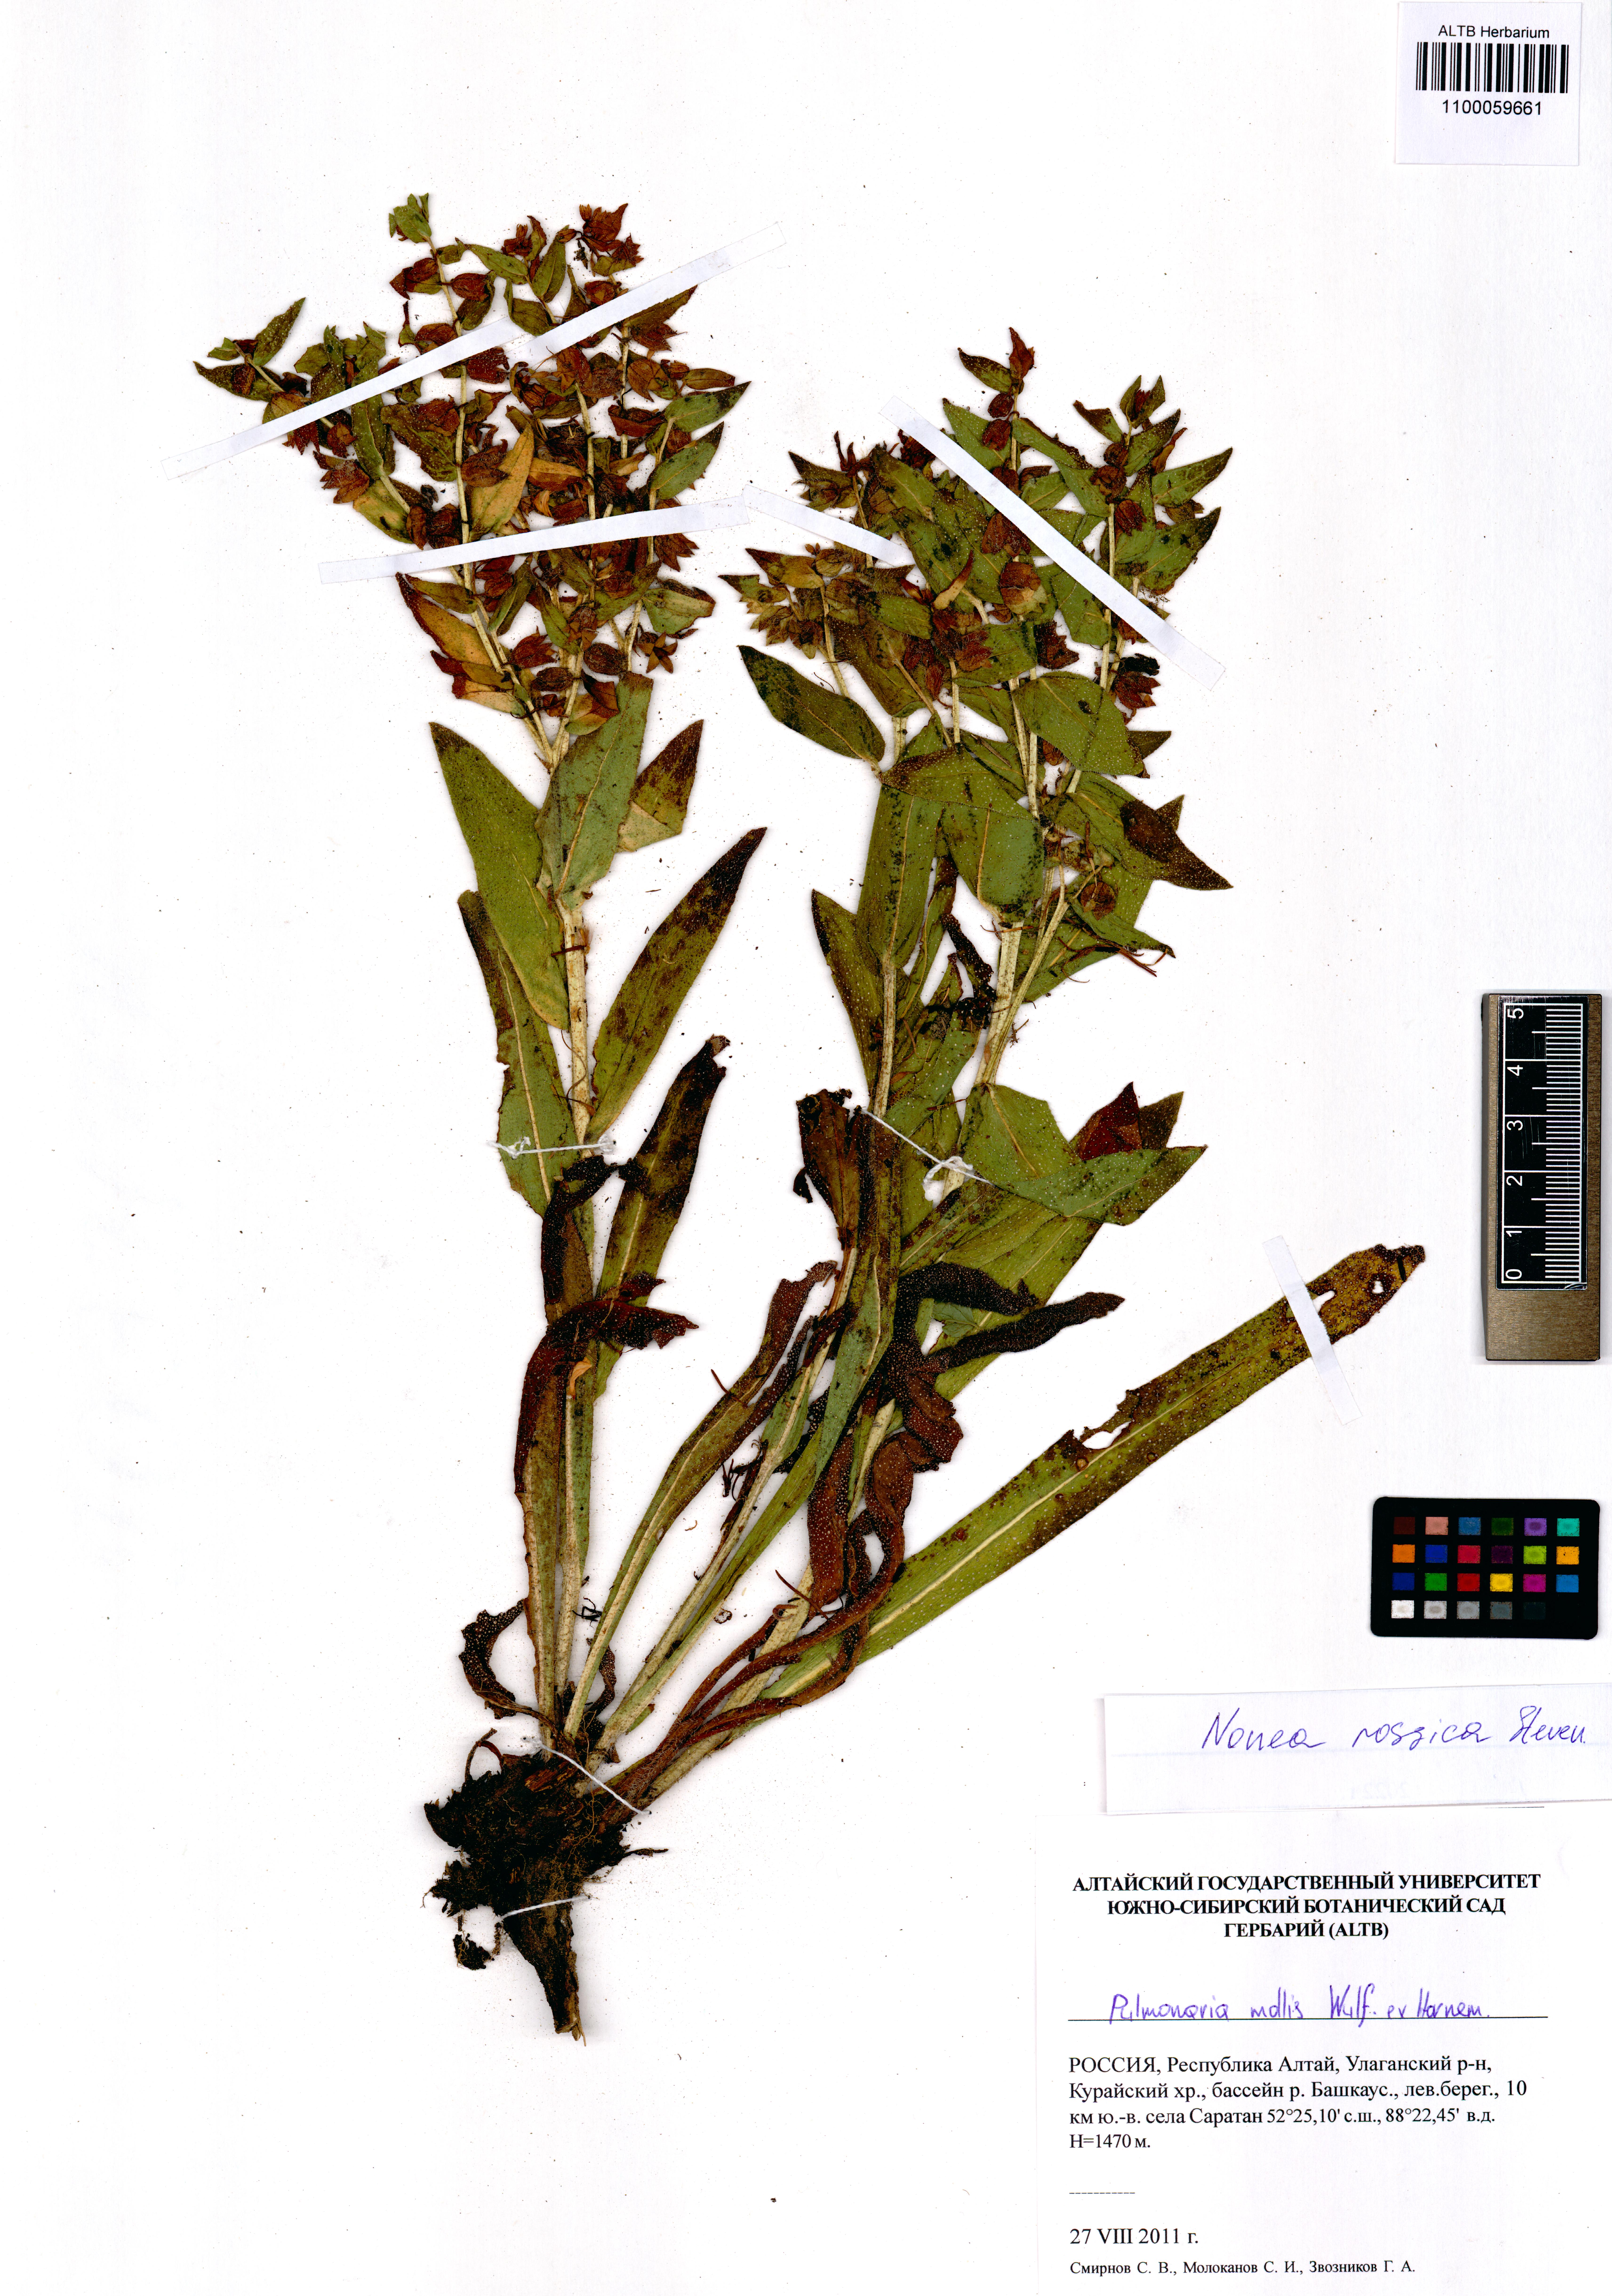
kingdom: Plantae
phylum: Tracheophyta
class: Magnoliopsida
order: Boraginales
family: Boraginaceae
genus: Nonea
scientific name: Nonea pulla
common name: Brown nonea
